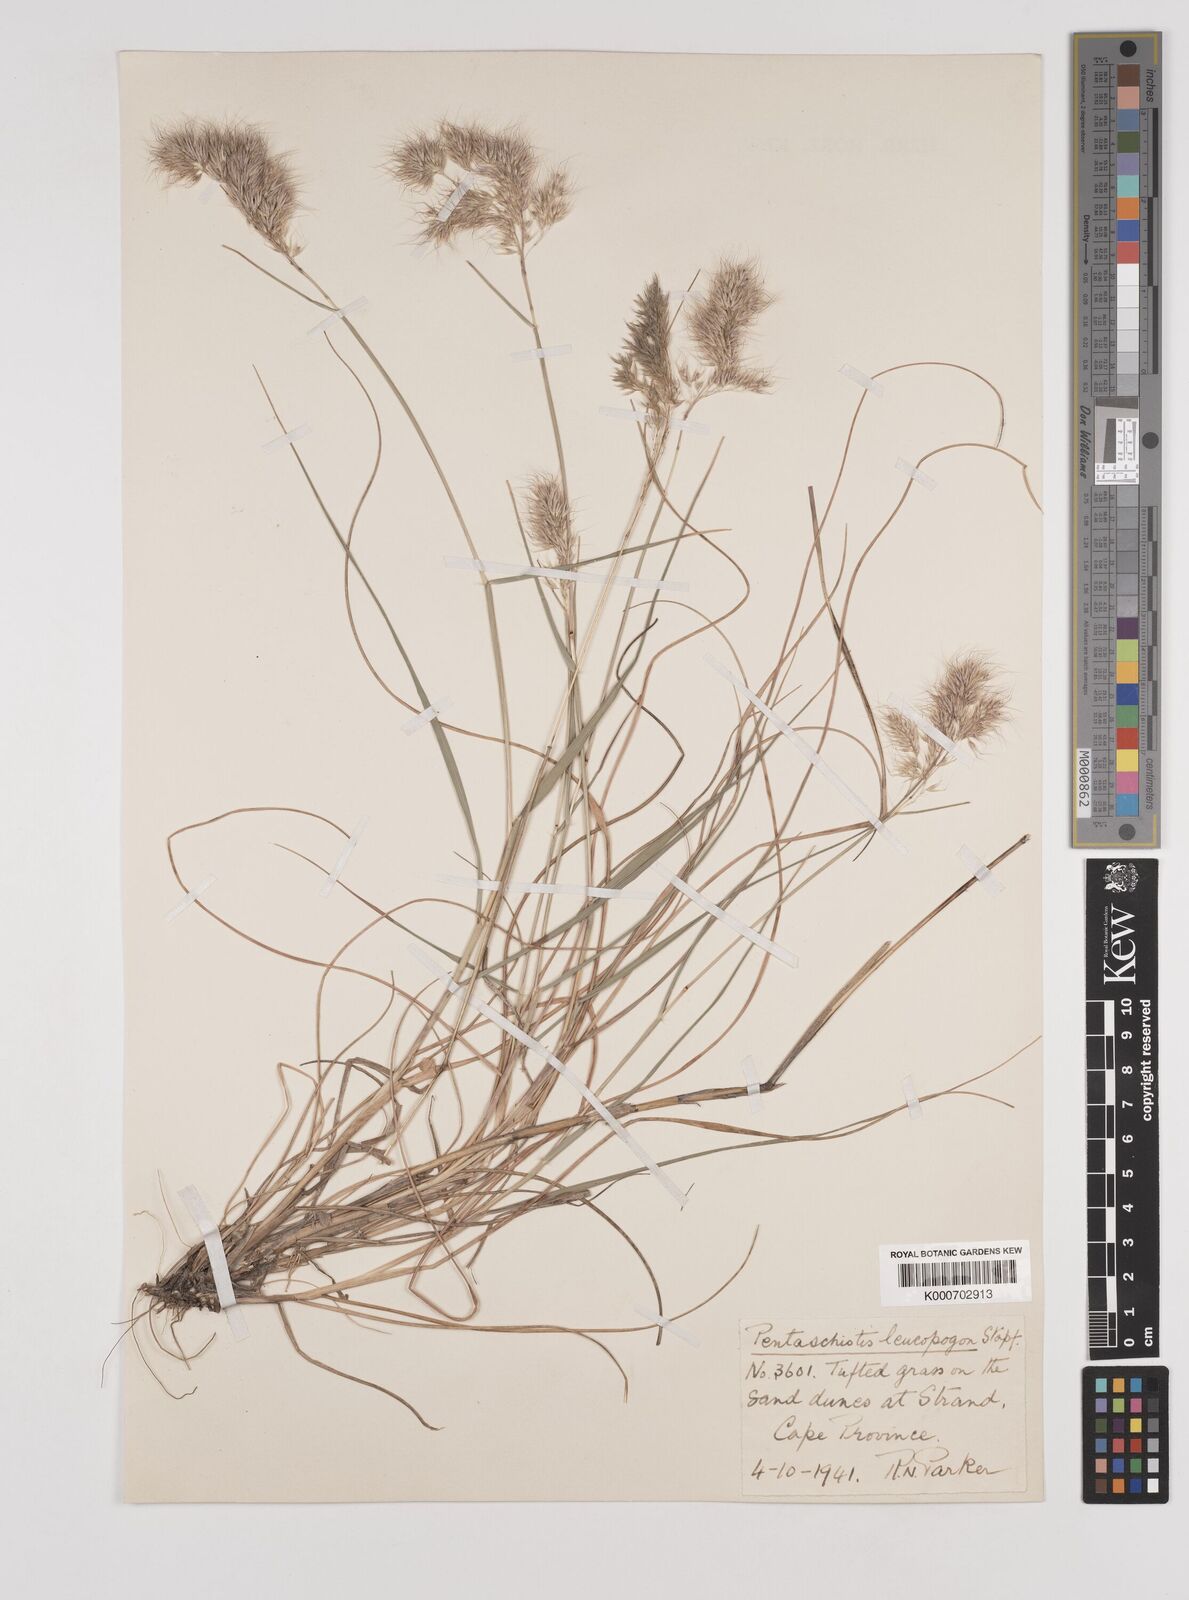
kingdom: Plantae
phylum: Tracheophyta
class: Liliopsida
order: Poales
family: Poaceae
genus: Pentameris
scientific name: Pentameris barbata
